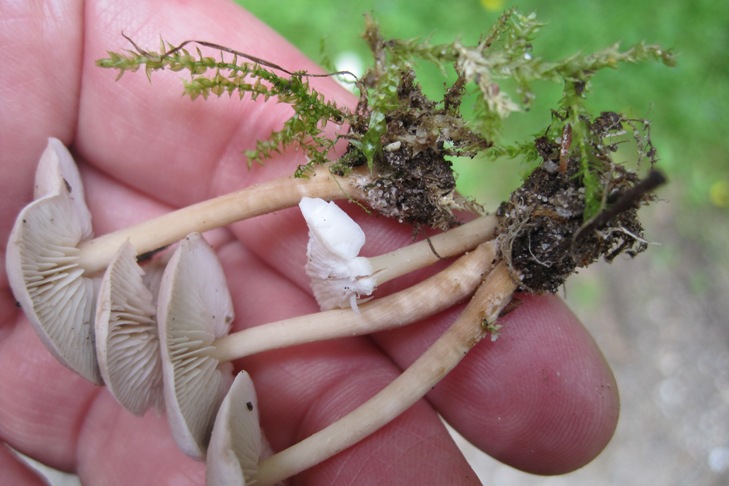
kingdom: Fungi
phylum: Basidiomycota
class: Agaricomycetes
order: Agaricales
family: Omphalotaceae
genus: Gymnopus
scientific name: Gymnopus ocior
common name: mørk fladhat
